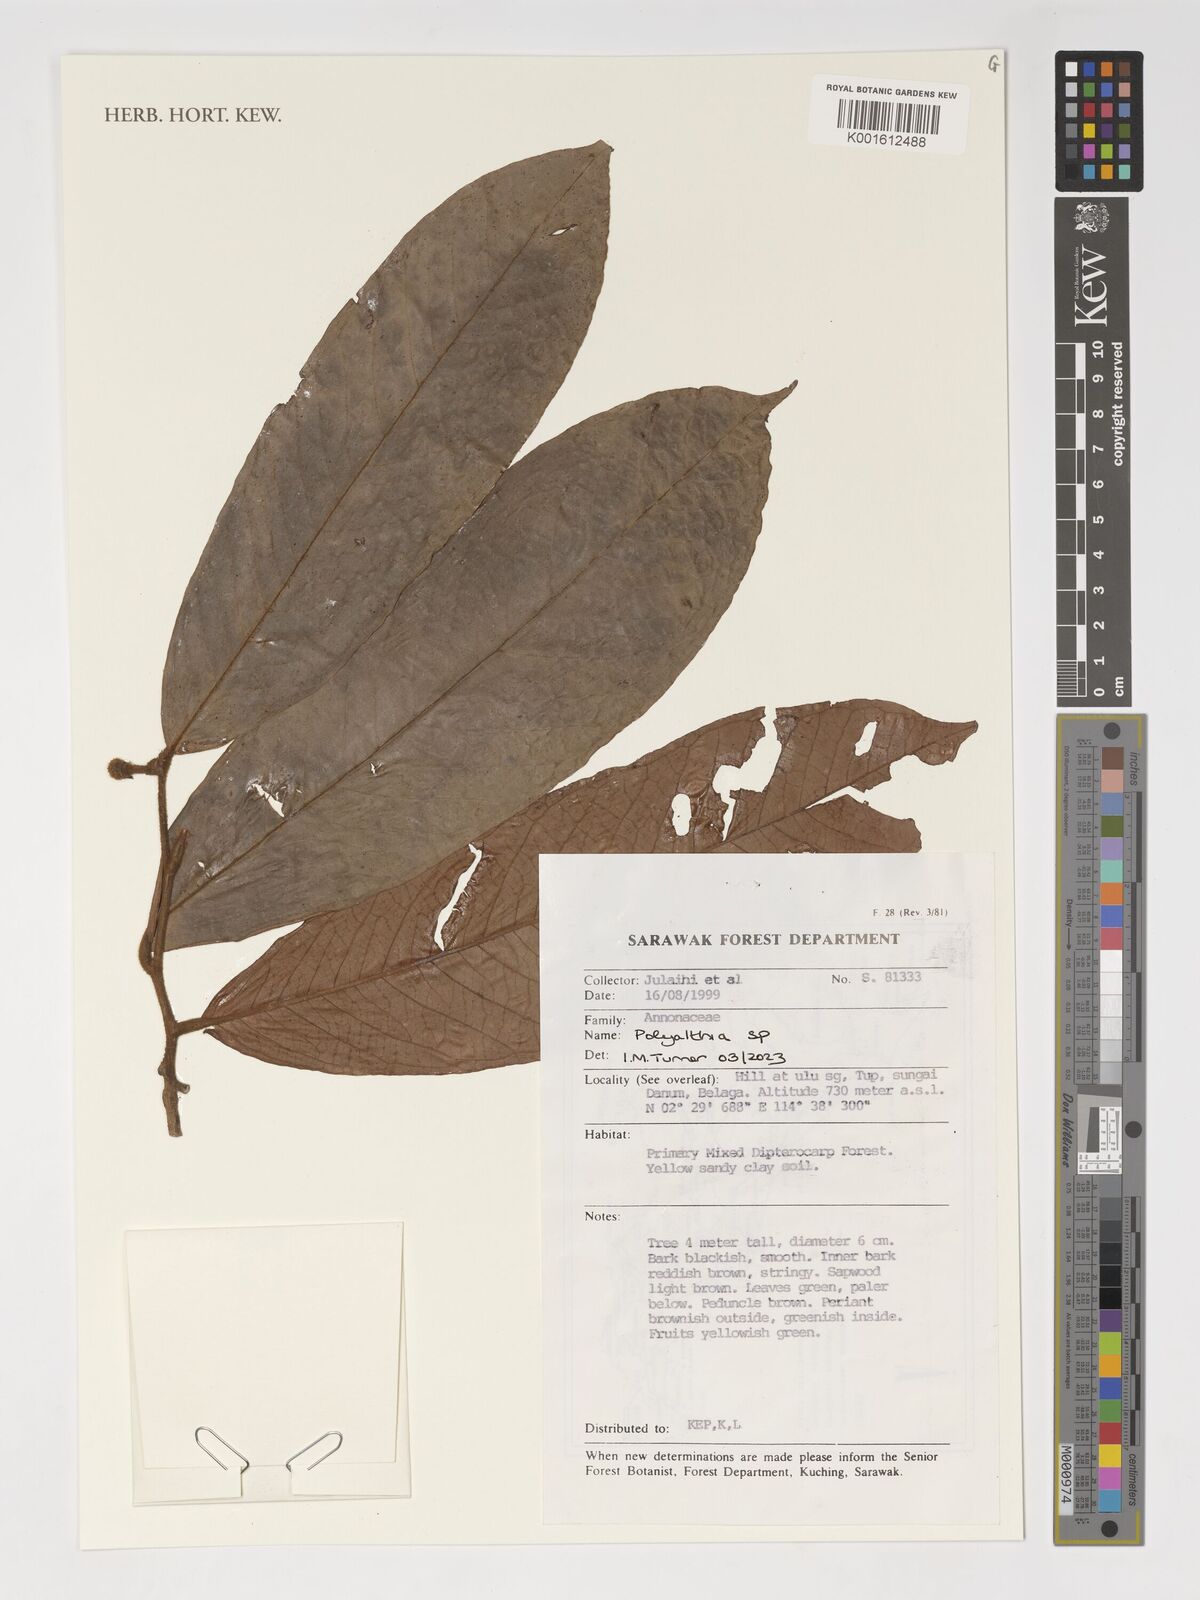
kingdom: Plantae
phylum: Tracheophyta
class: Magnoliopsida
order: Magnoliales
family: Annonaceae
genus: Polyalthia
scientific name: Polyalthia
